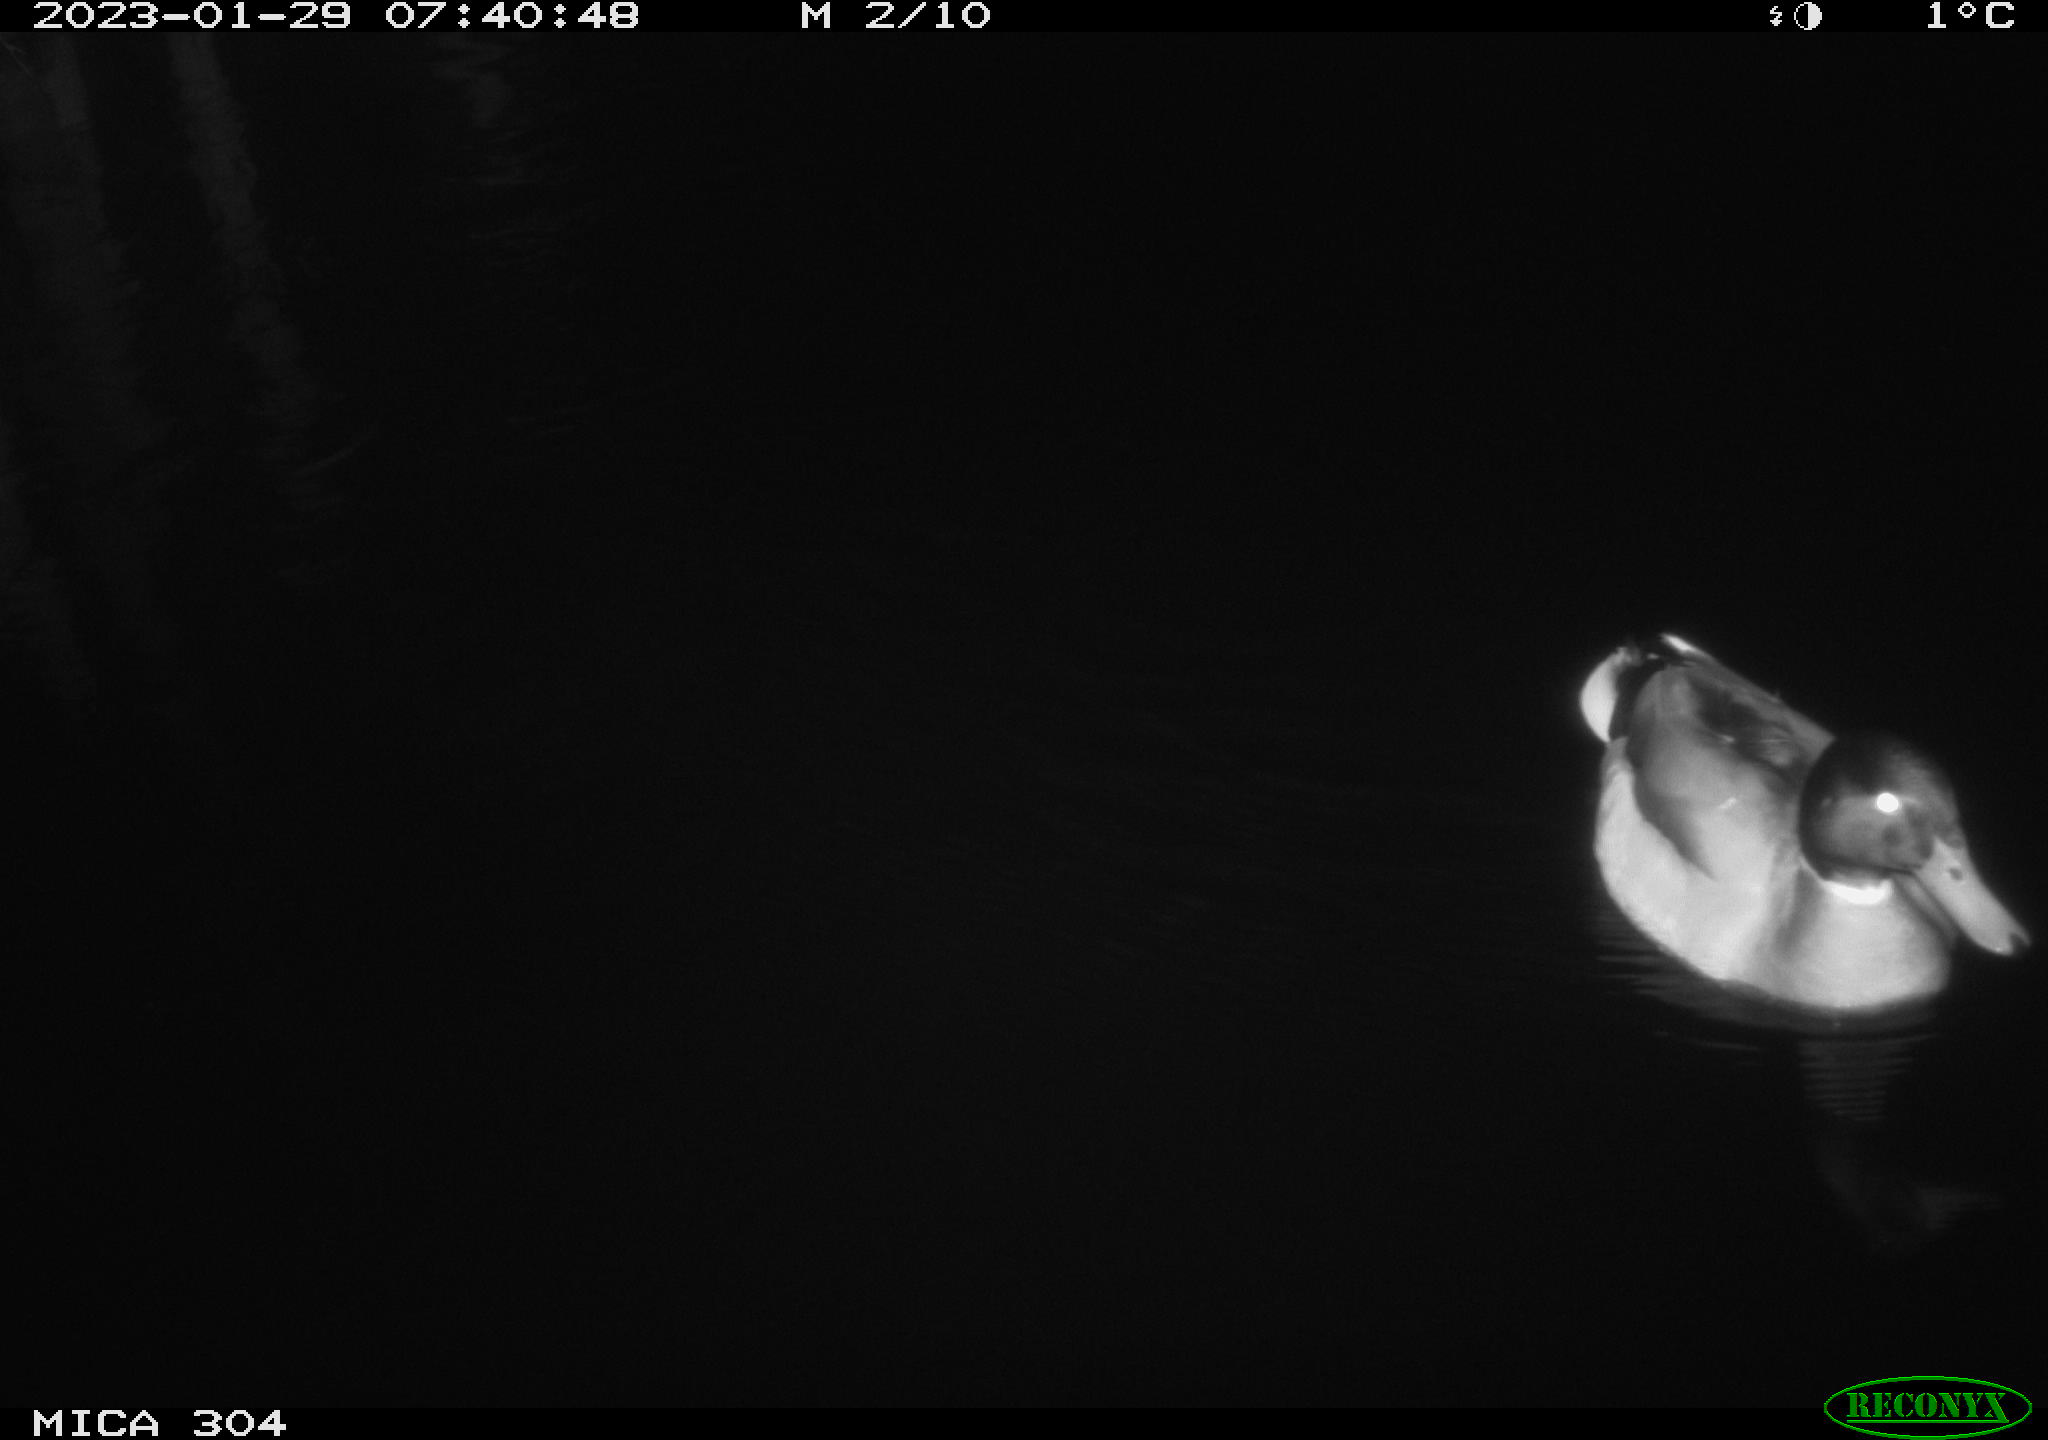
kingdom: Animalia
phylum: Chordata
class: Mammalia
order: Rodentia
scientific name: Rodentia
